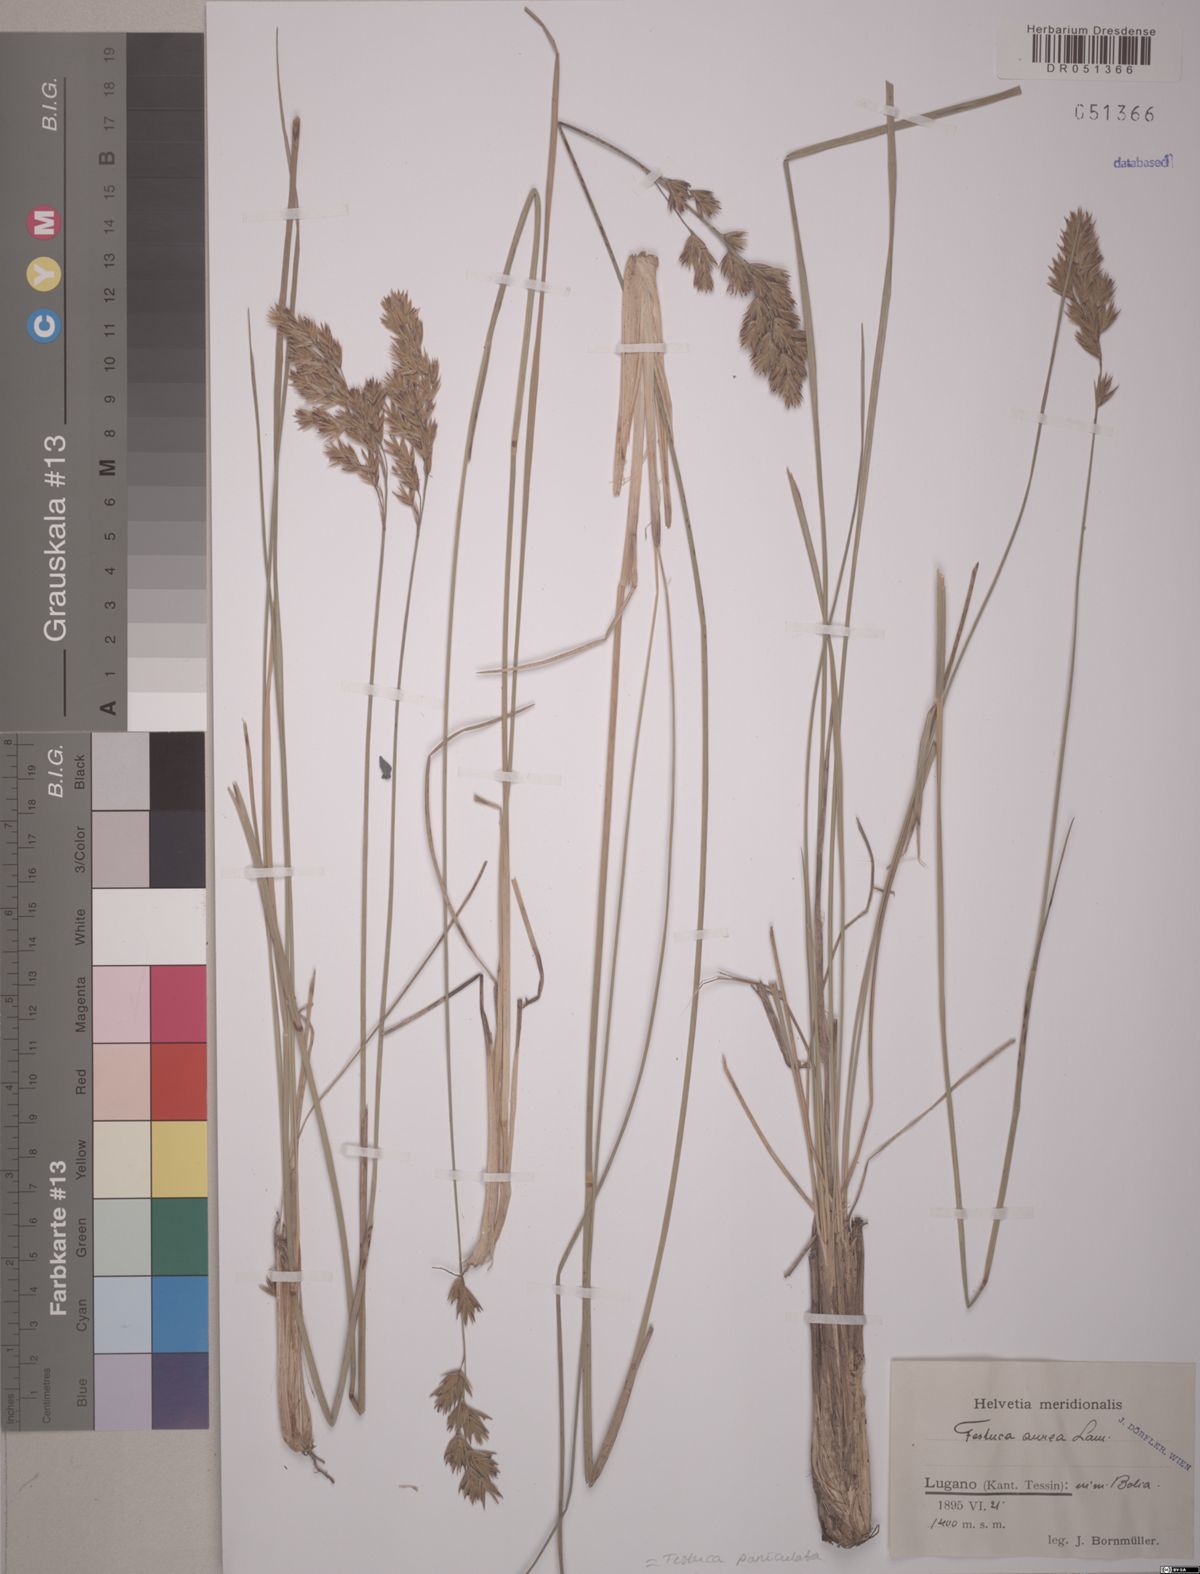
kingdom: Plantae
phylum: Tracheophyta
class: Liliopsida
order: Poales
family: Poaceae
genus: Patzkea
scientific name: Patzkea paniculata
